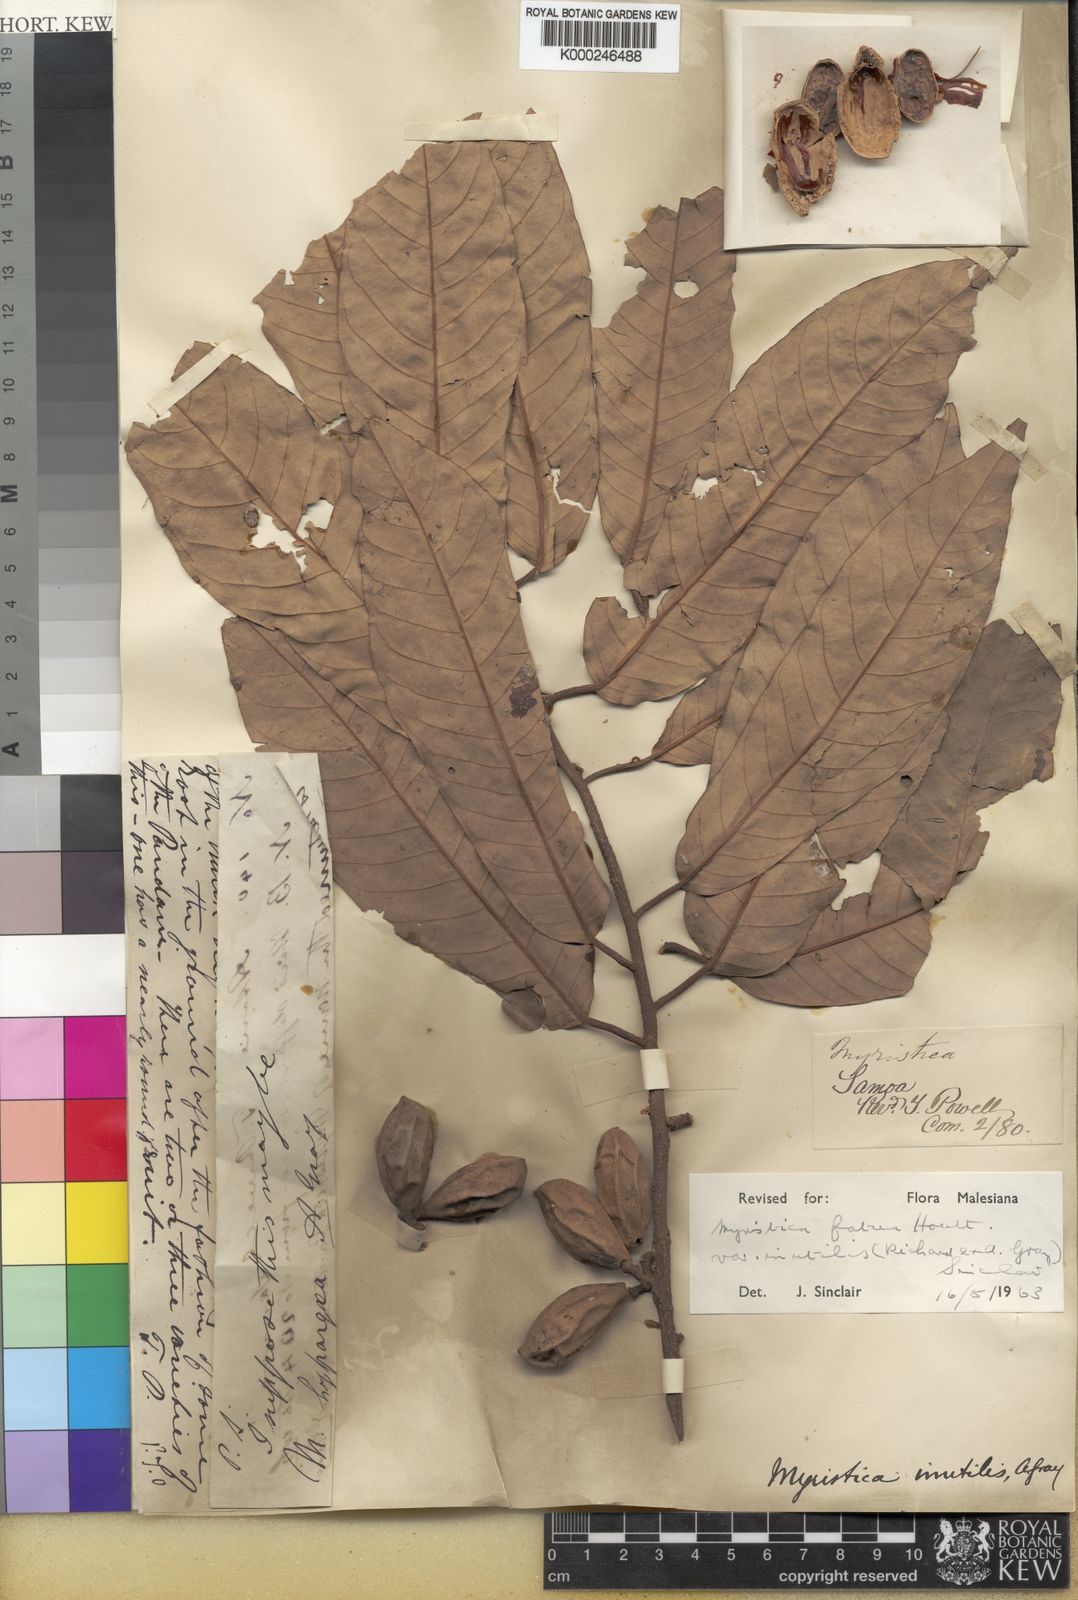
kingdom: Plantae
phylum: Tracheophyta
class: Magnoliopsida
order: Magnoliales
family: Myristicaceae
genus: Myristica
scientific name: Myristica fatua
